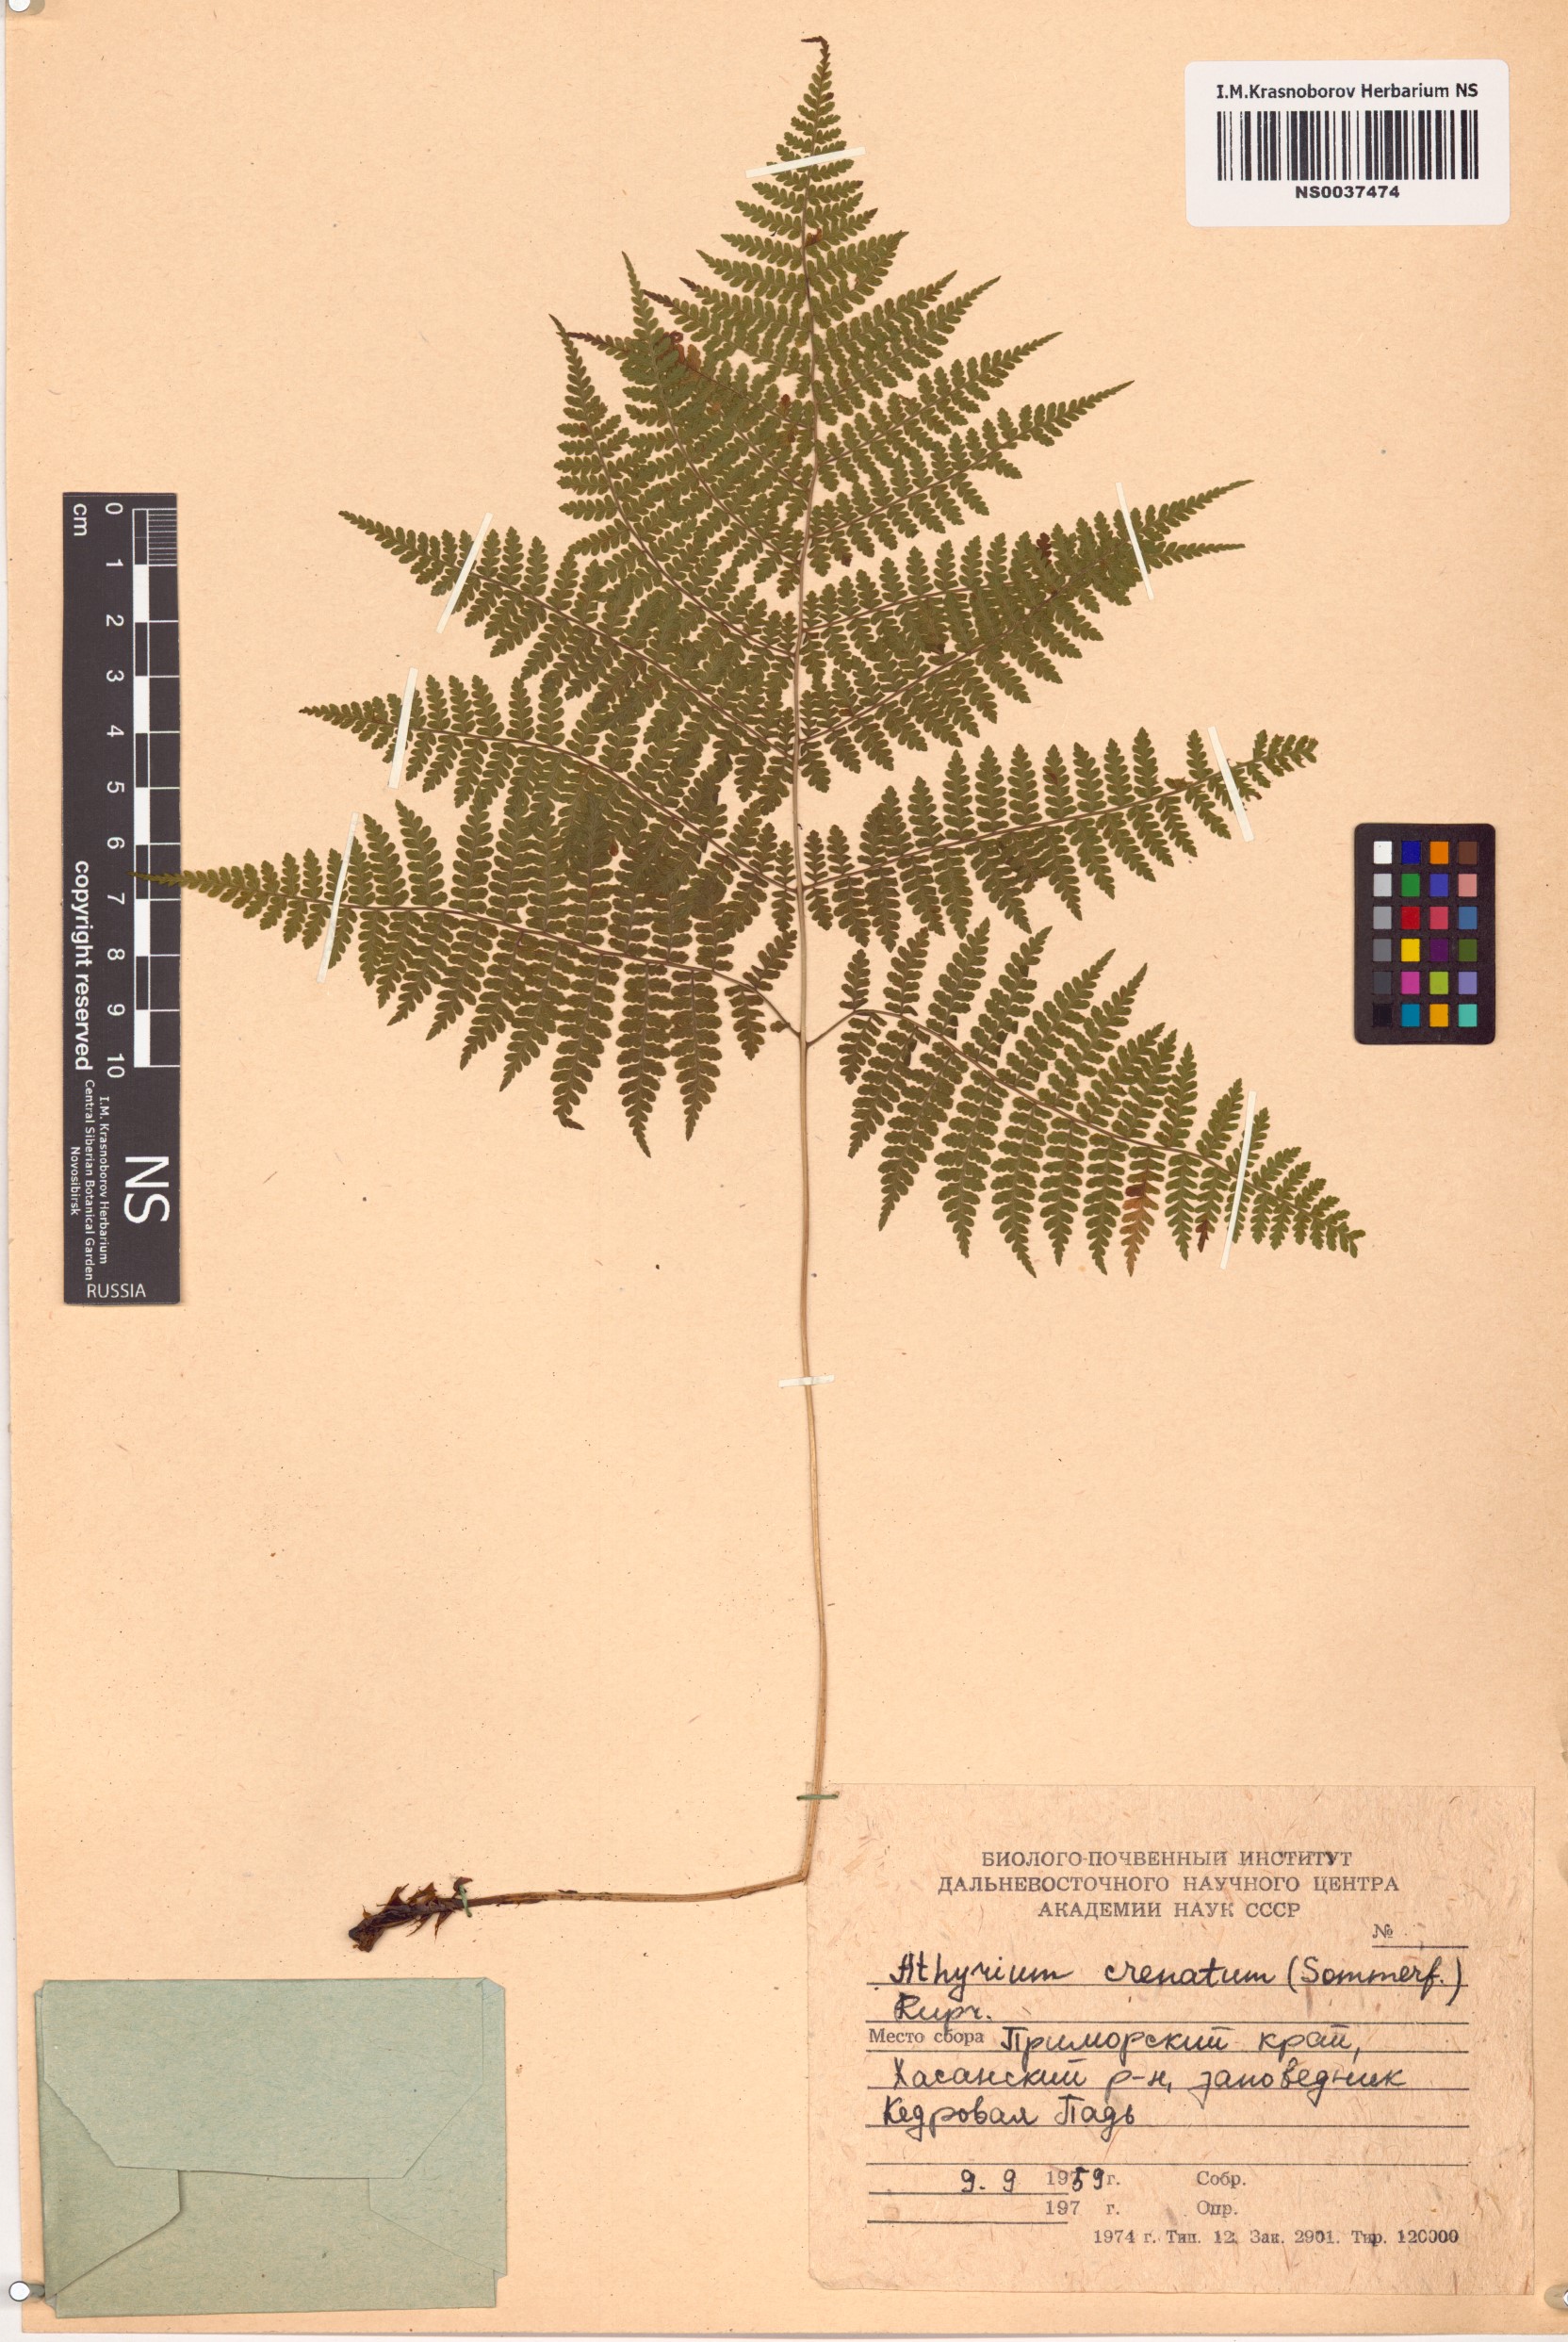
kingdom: Plantae
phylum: Tracheophyta
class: Polypodiopsida
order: Polypodiales
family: Athyriaceae
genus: Diplazium
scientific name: Diplazium sibiricum
